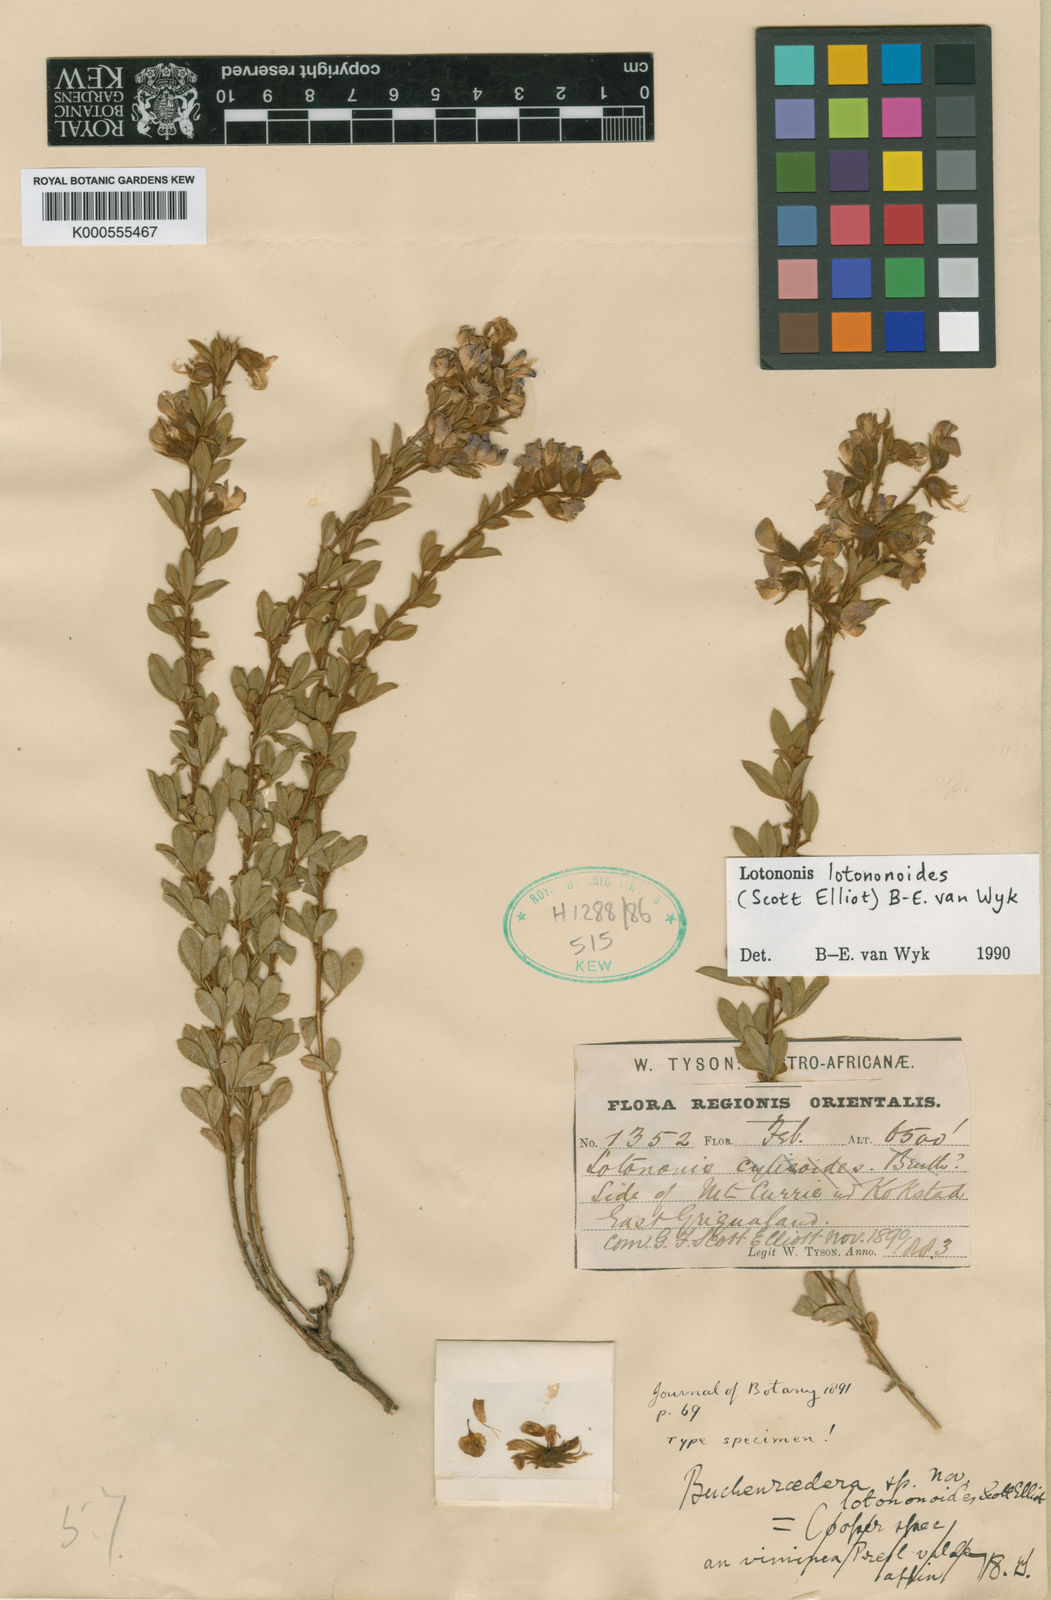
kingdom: Plantae
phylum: Tracheophyta
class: Magnoliopsida
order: Fabales
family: Fabaceae
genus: Lotononis
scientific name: Lotononis lotononoides
